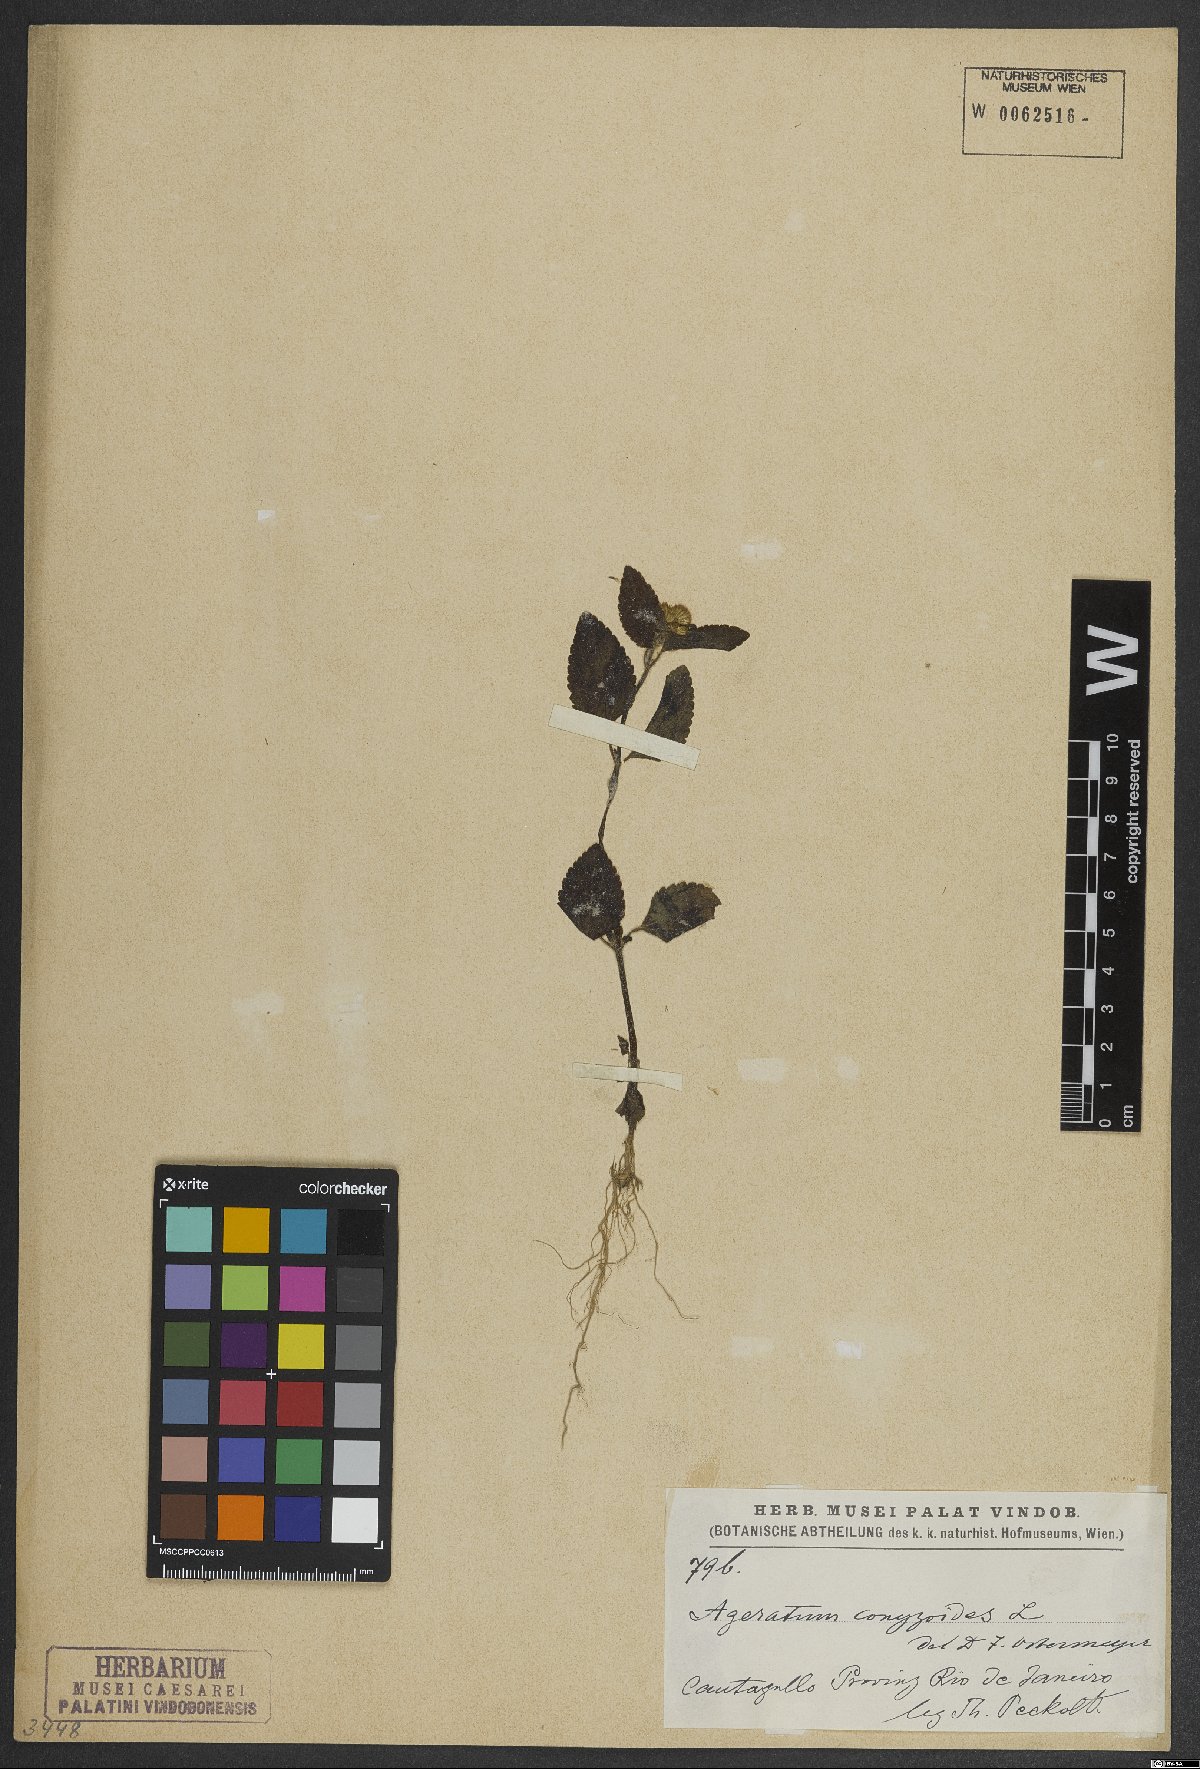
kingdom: Plantae
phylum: Tracheophyta
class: Magnoliopsida
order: Asterales
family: Asteraceae
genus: Ageratum
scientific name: Ageratum conyzoides
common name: Tropical whiteweed
